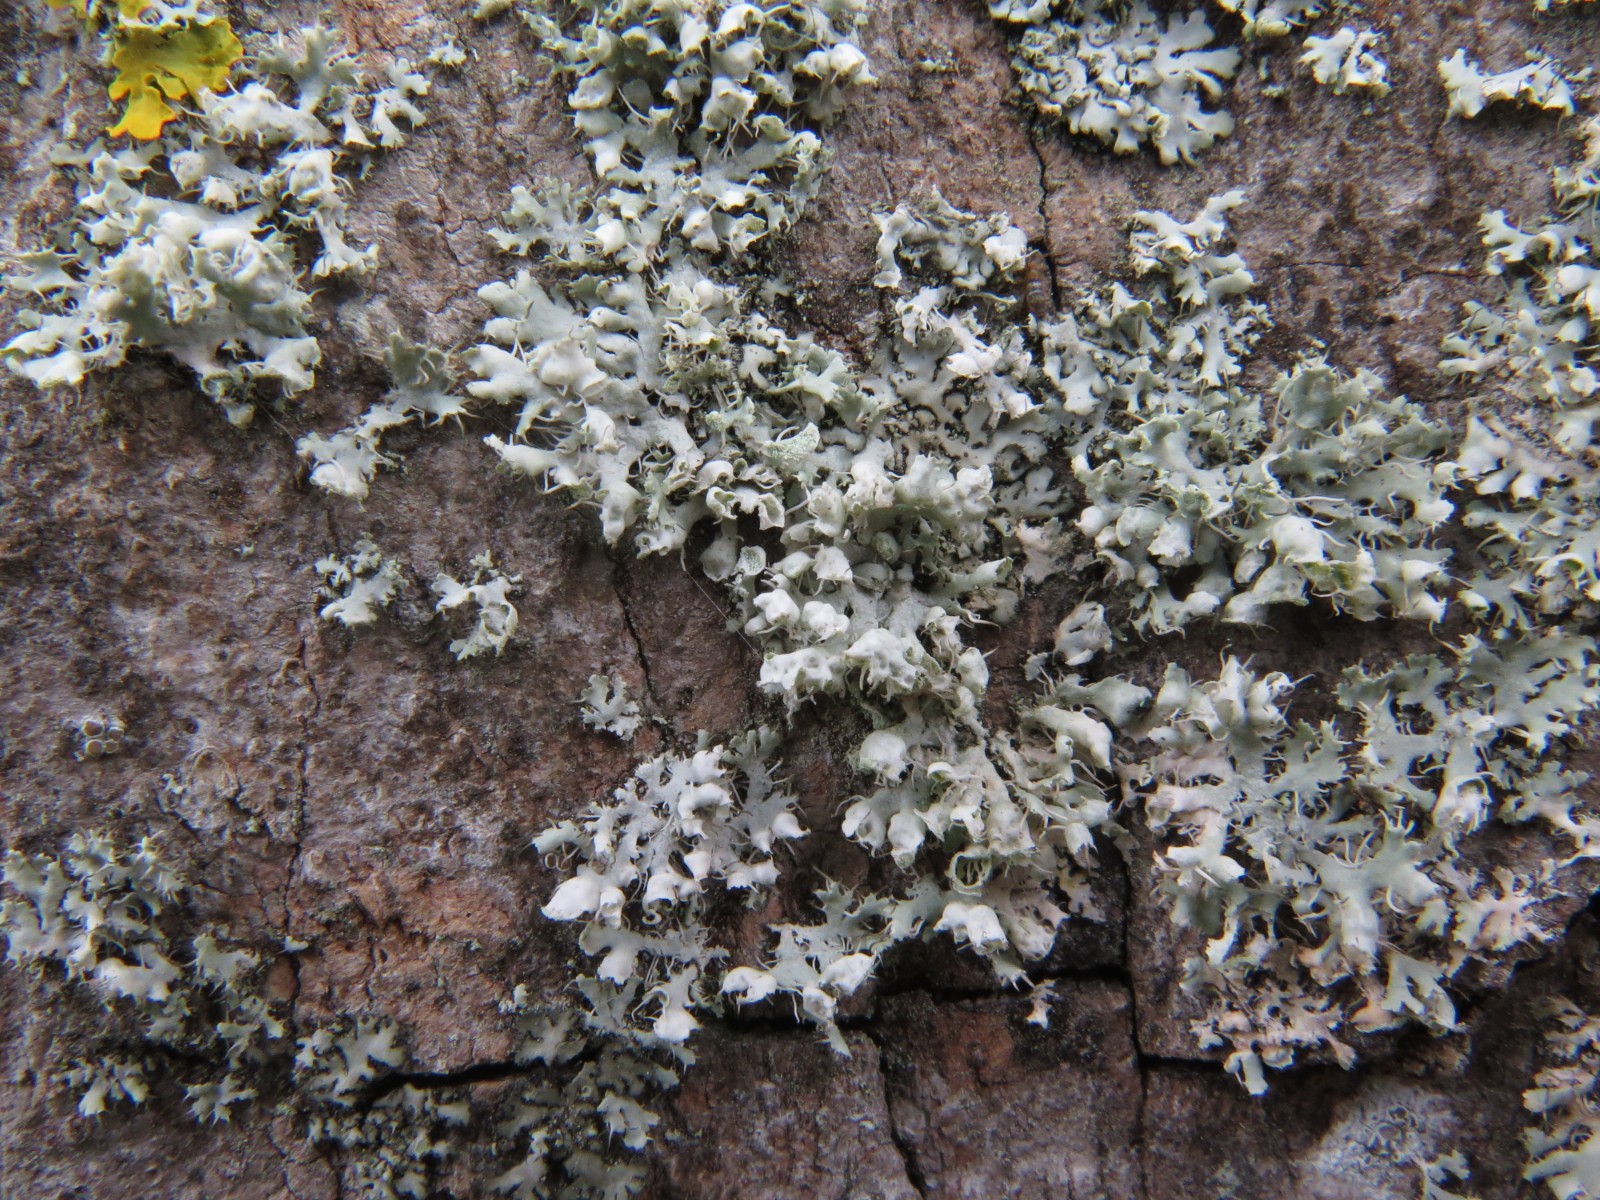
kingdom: Fungi
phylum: Ascomycota
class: Lecanoromycetes
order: Caliciales
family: Physciaceae
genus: Physcia
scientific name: Physcia adscendens
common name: hætte-rosetlav
